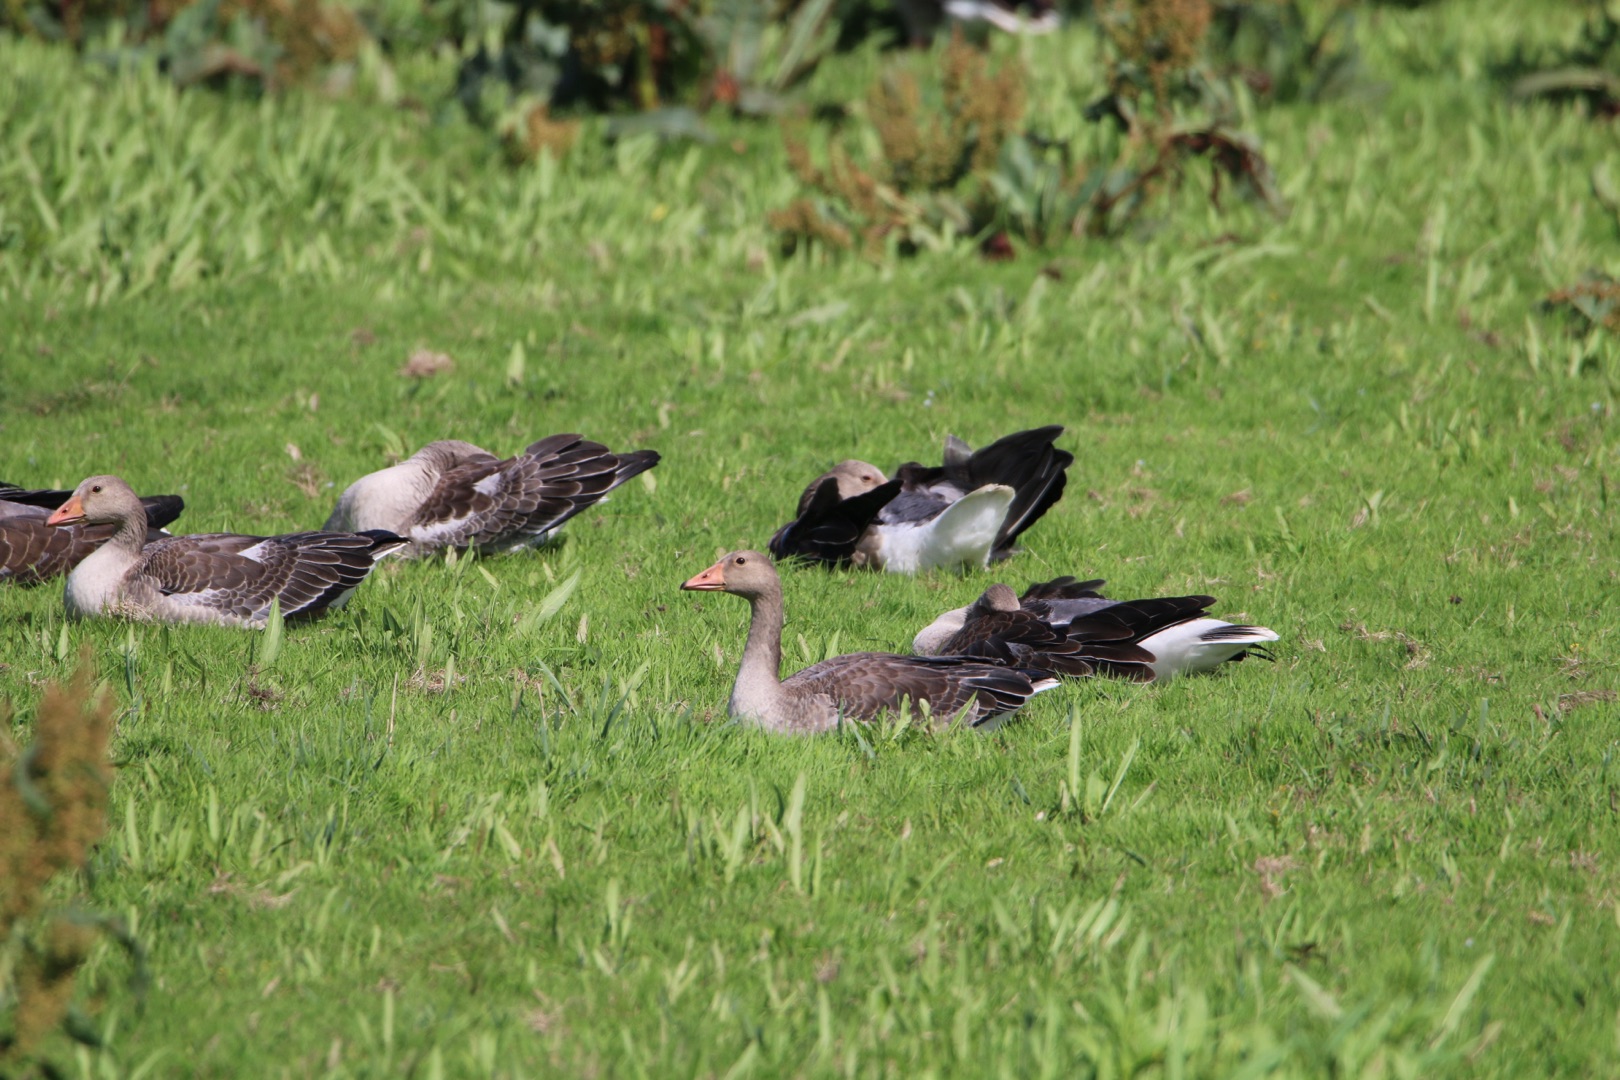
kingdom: Animalia
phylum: Chordata
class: Aves
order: Anseriformes
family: Anatidae
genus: Anser
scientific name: Anser anser
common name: Grågås
